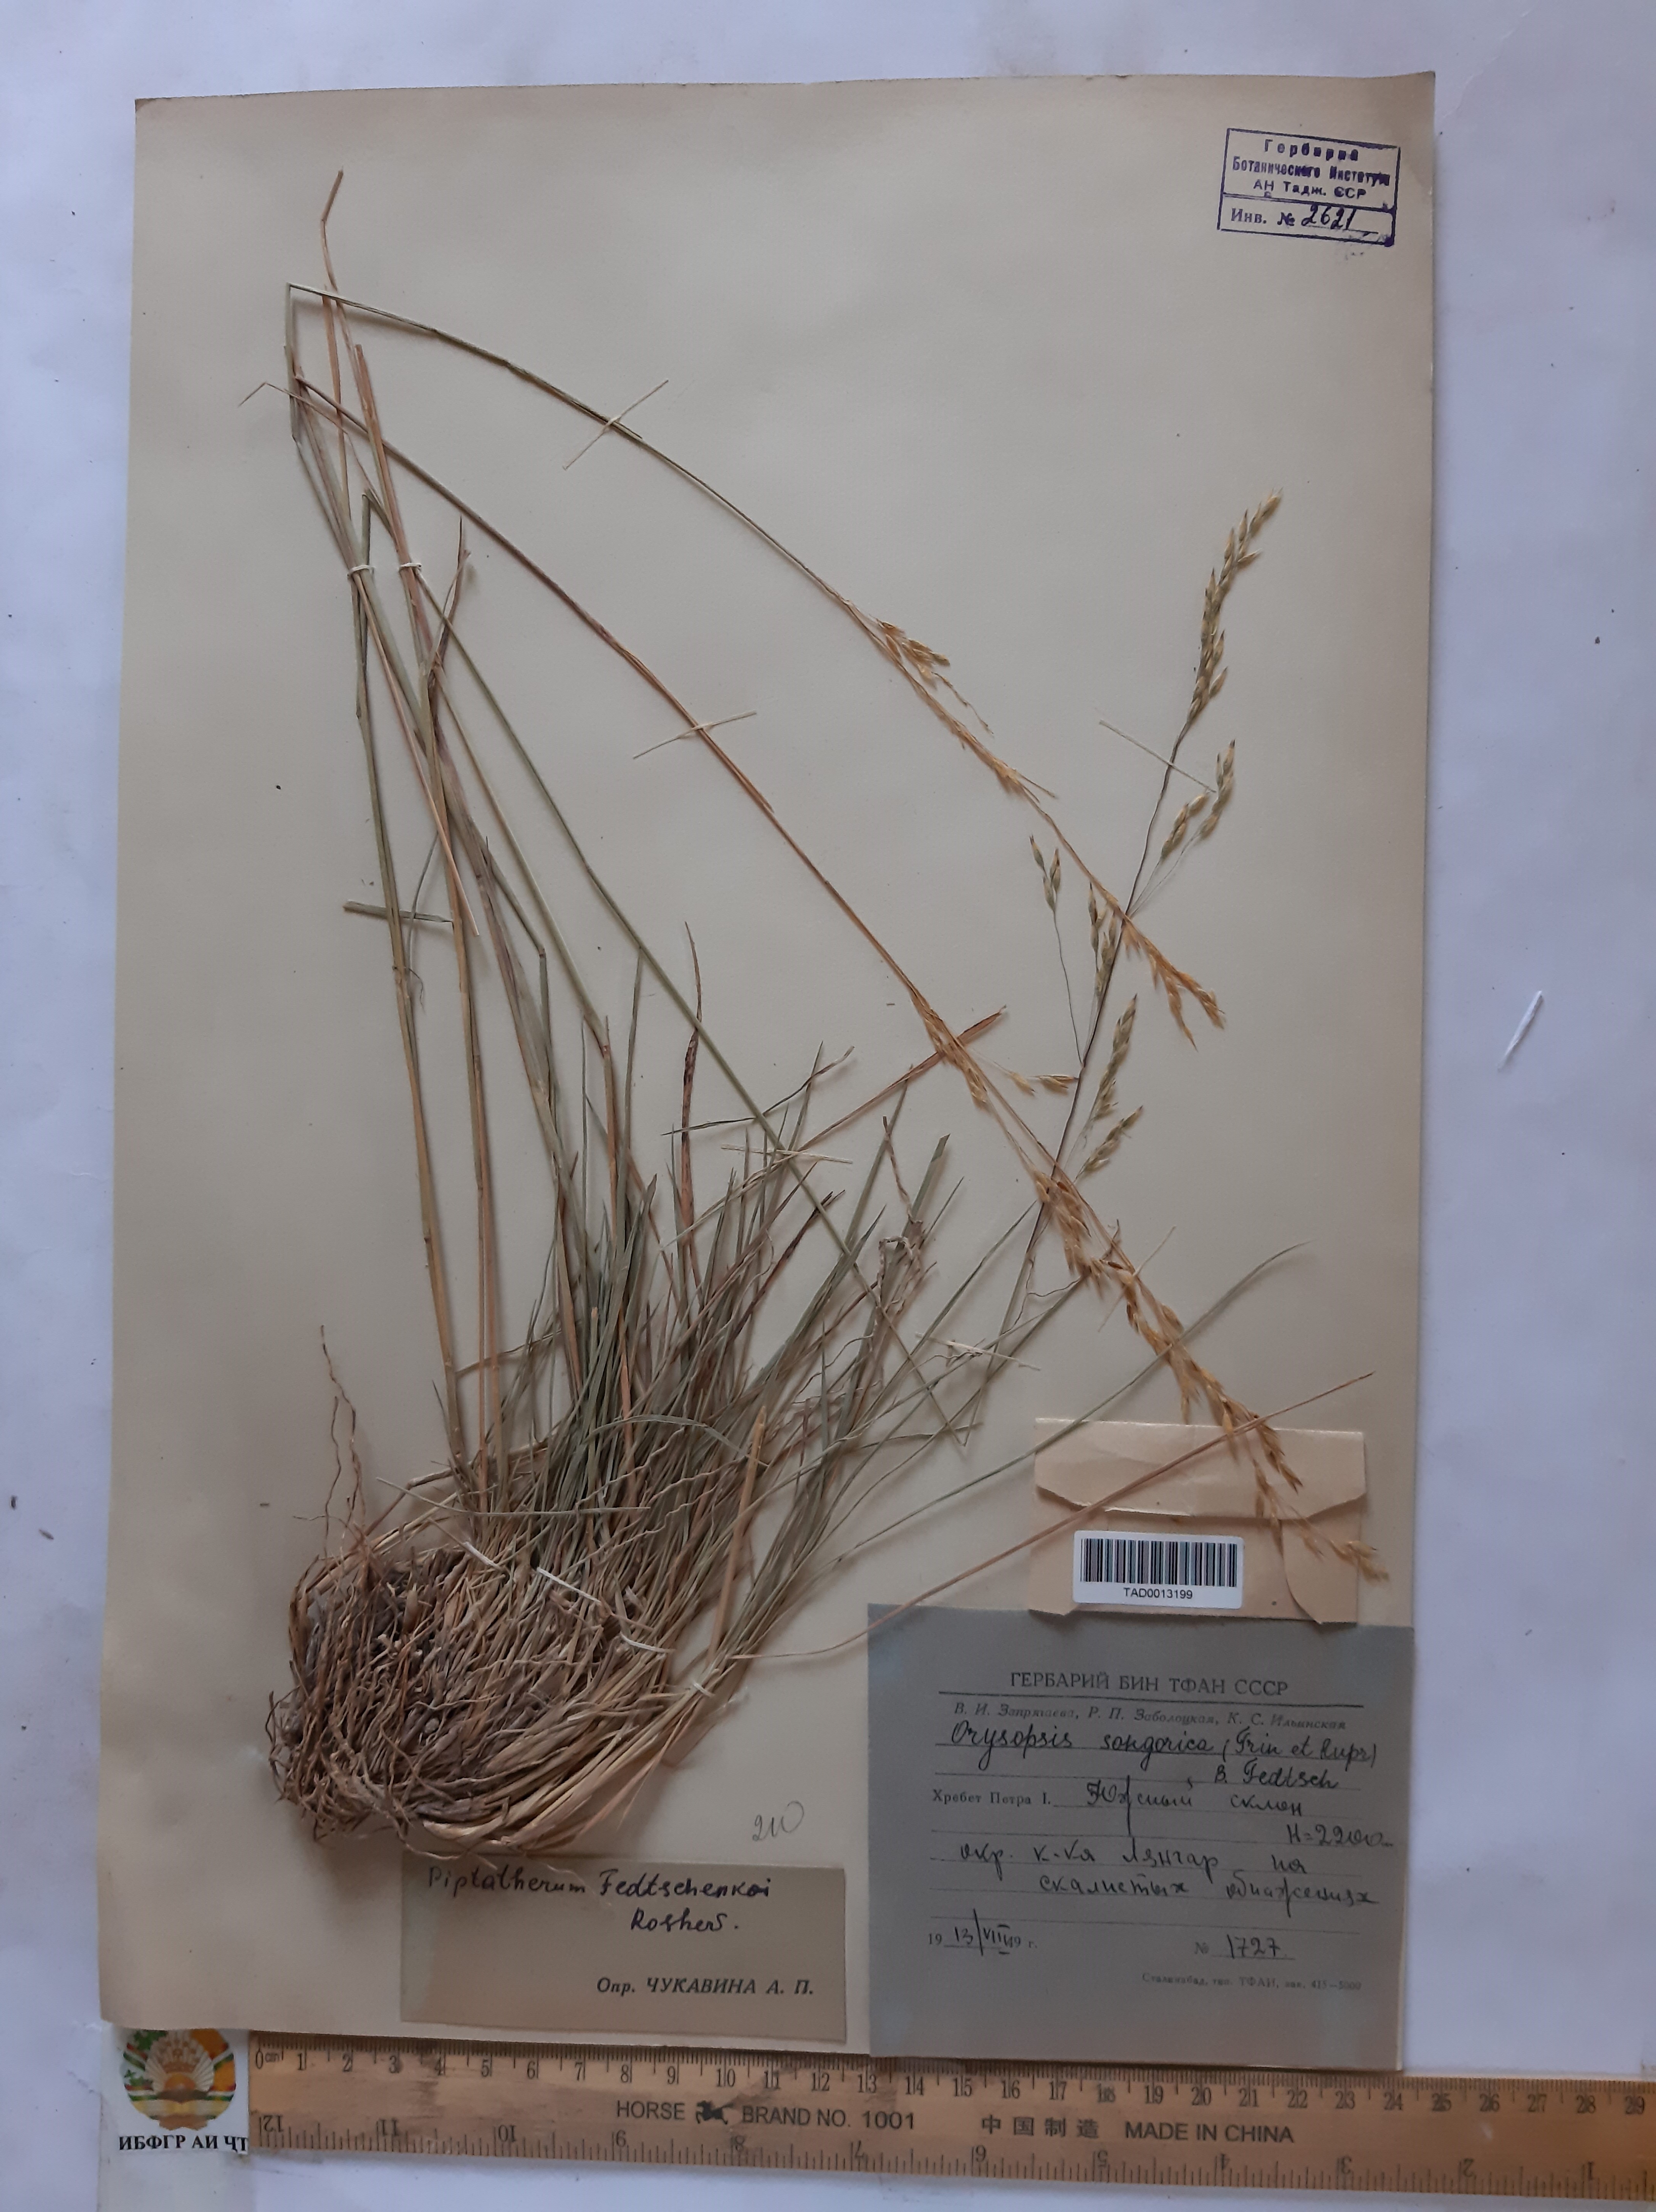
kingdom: Plantae
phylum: Tracheophyta
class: Liliopsida
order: Poales
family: Poaceae
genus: Piptatherum
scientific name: Piptatherum songaricum
